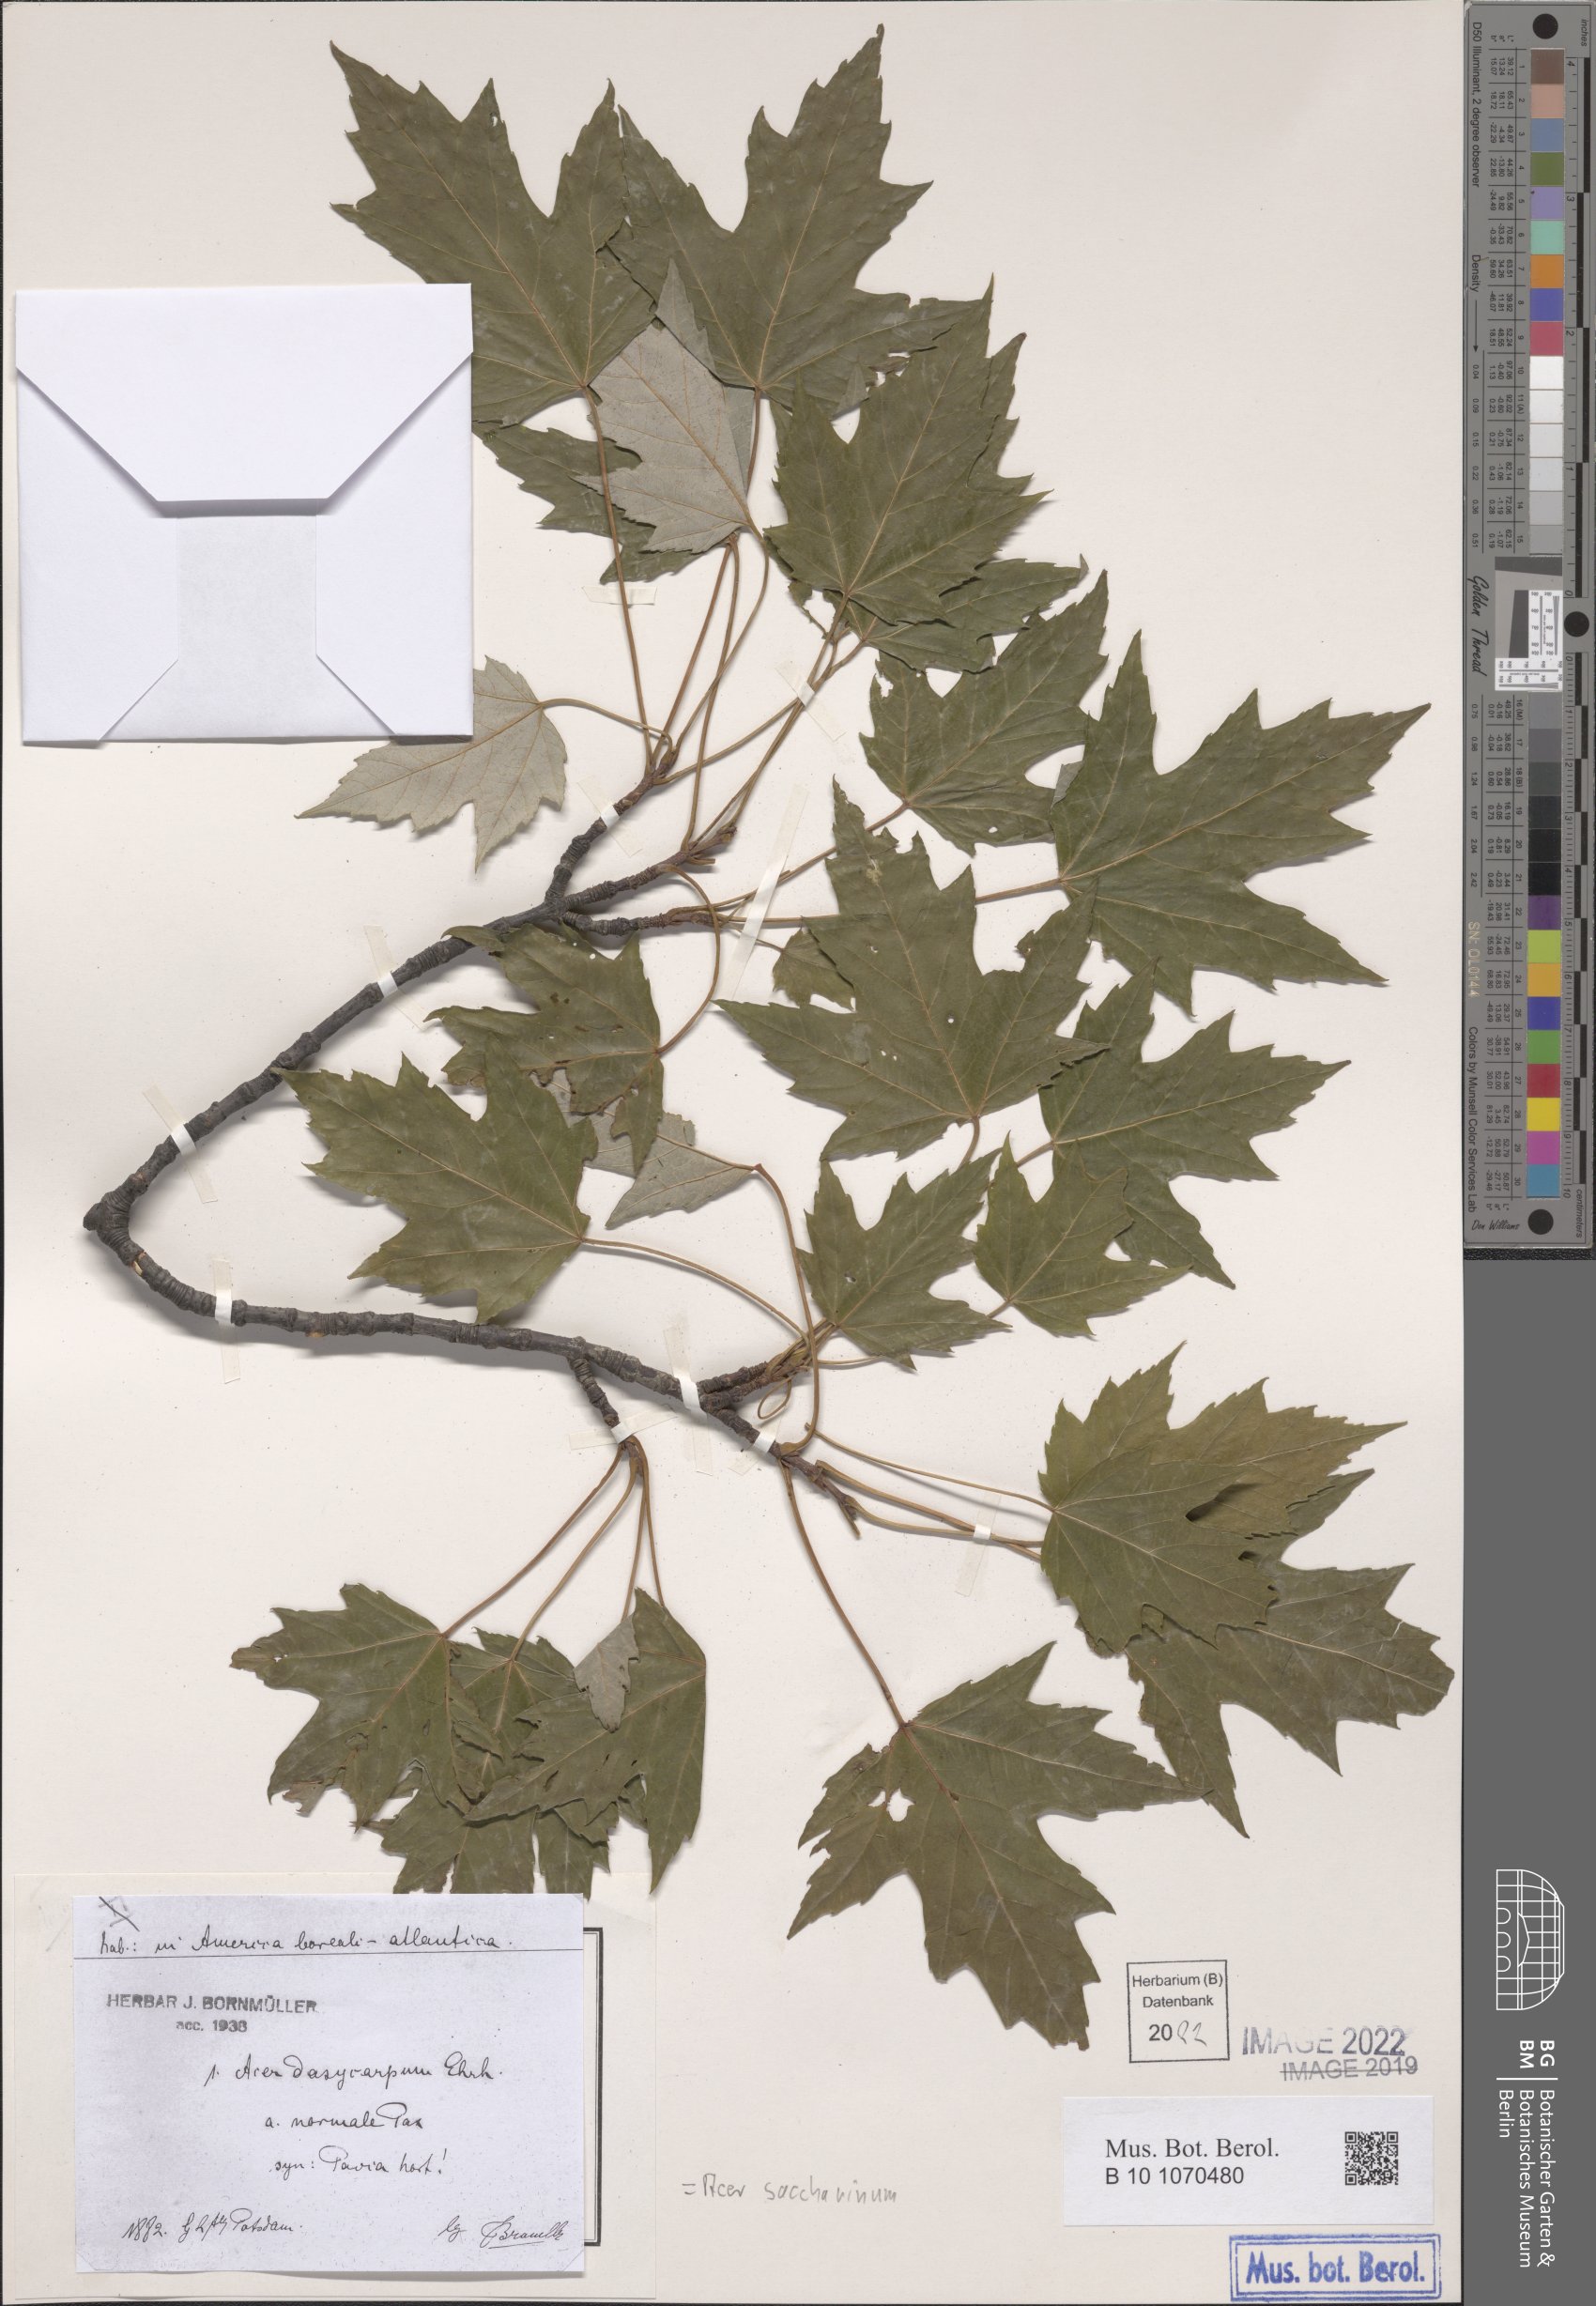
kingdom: Plantae
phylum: Tracheophyta
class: Magnoliopsida
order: Sapindales
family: Sapindaceae
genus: Acer
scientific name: Acer saccharinum
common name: Silver maple
